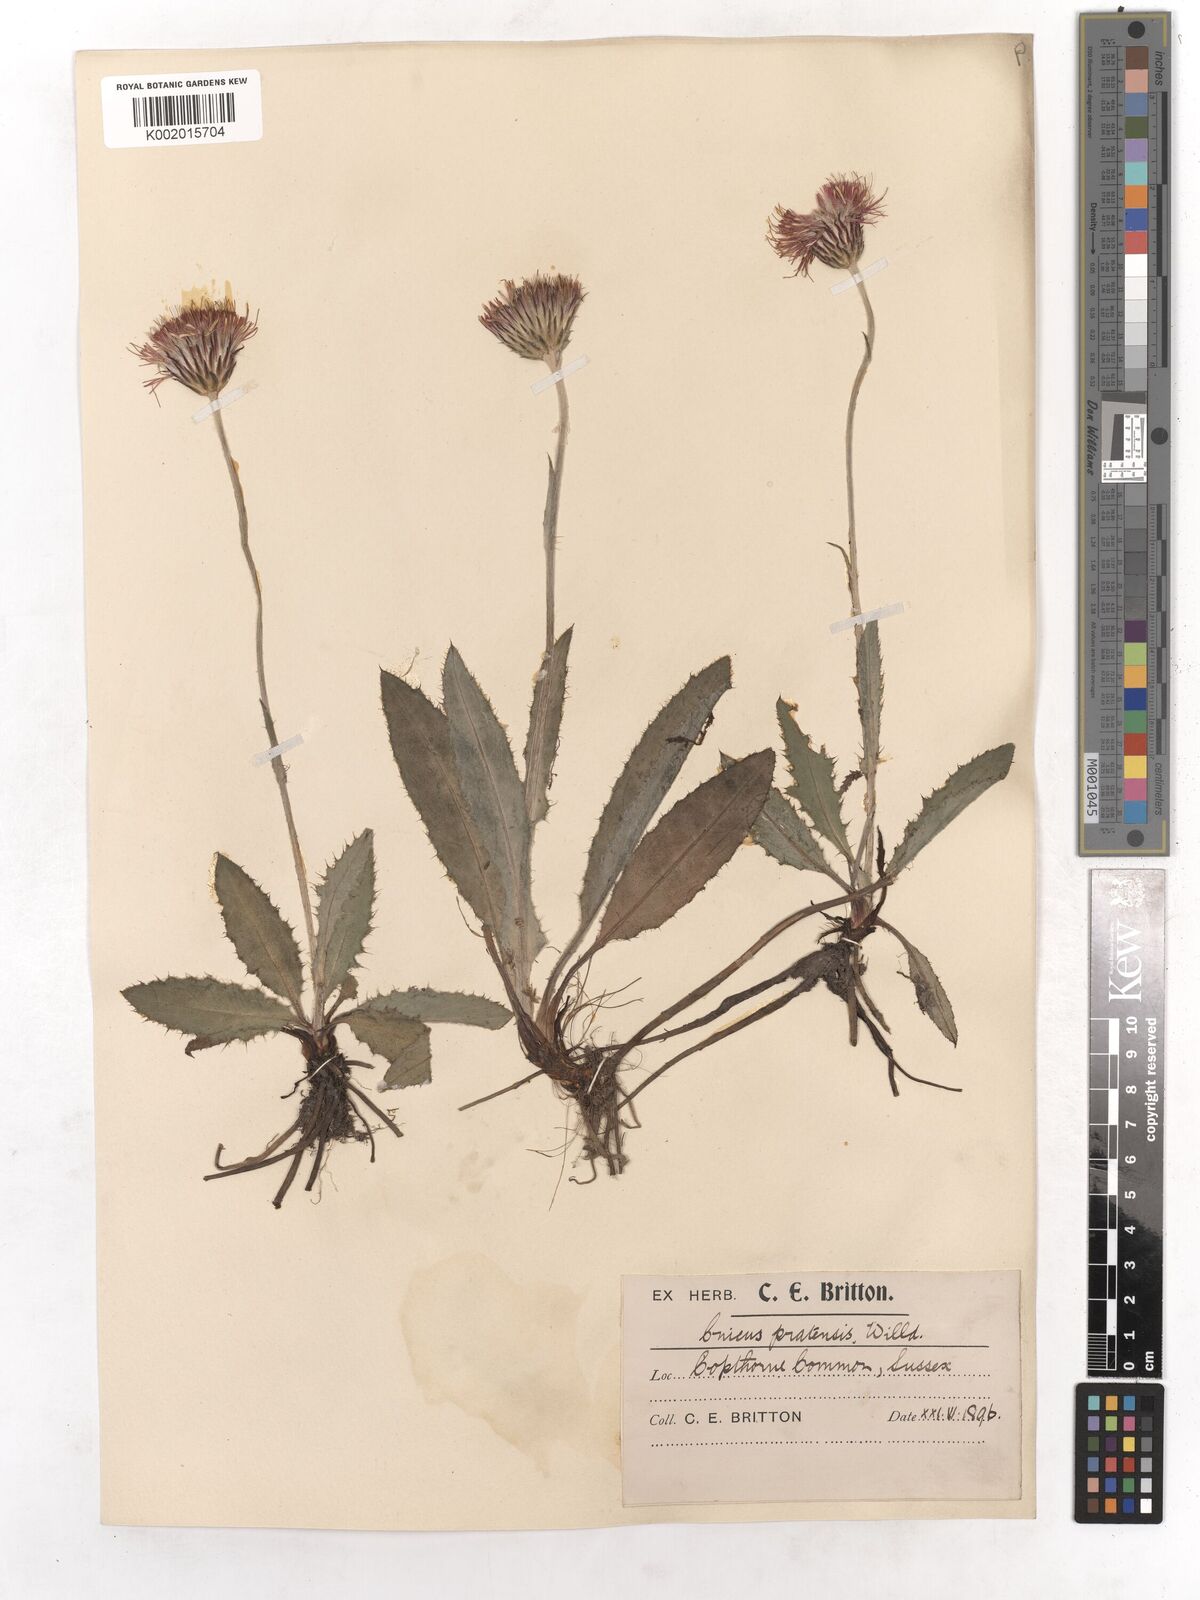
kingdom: Plantae
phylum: Tracheophyta
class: Magnoliopsida
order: Asterales
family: Asteraceae
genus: Cirsium
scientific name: Cirsium dissectum
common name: Meadow thistle
